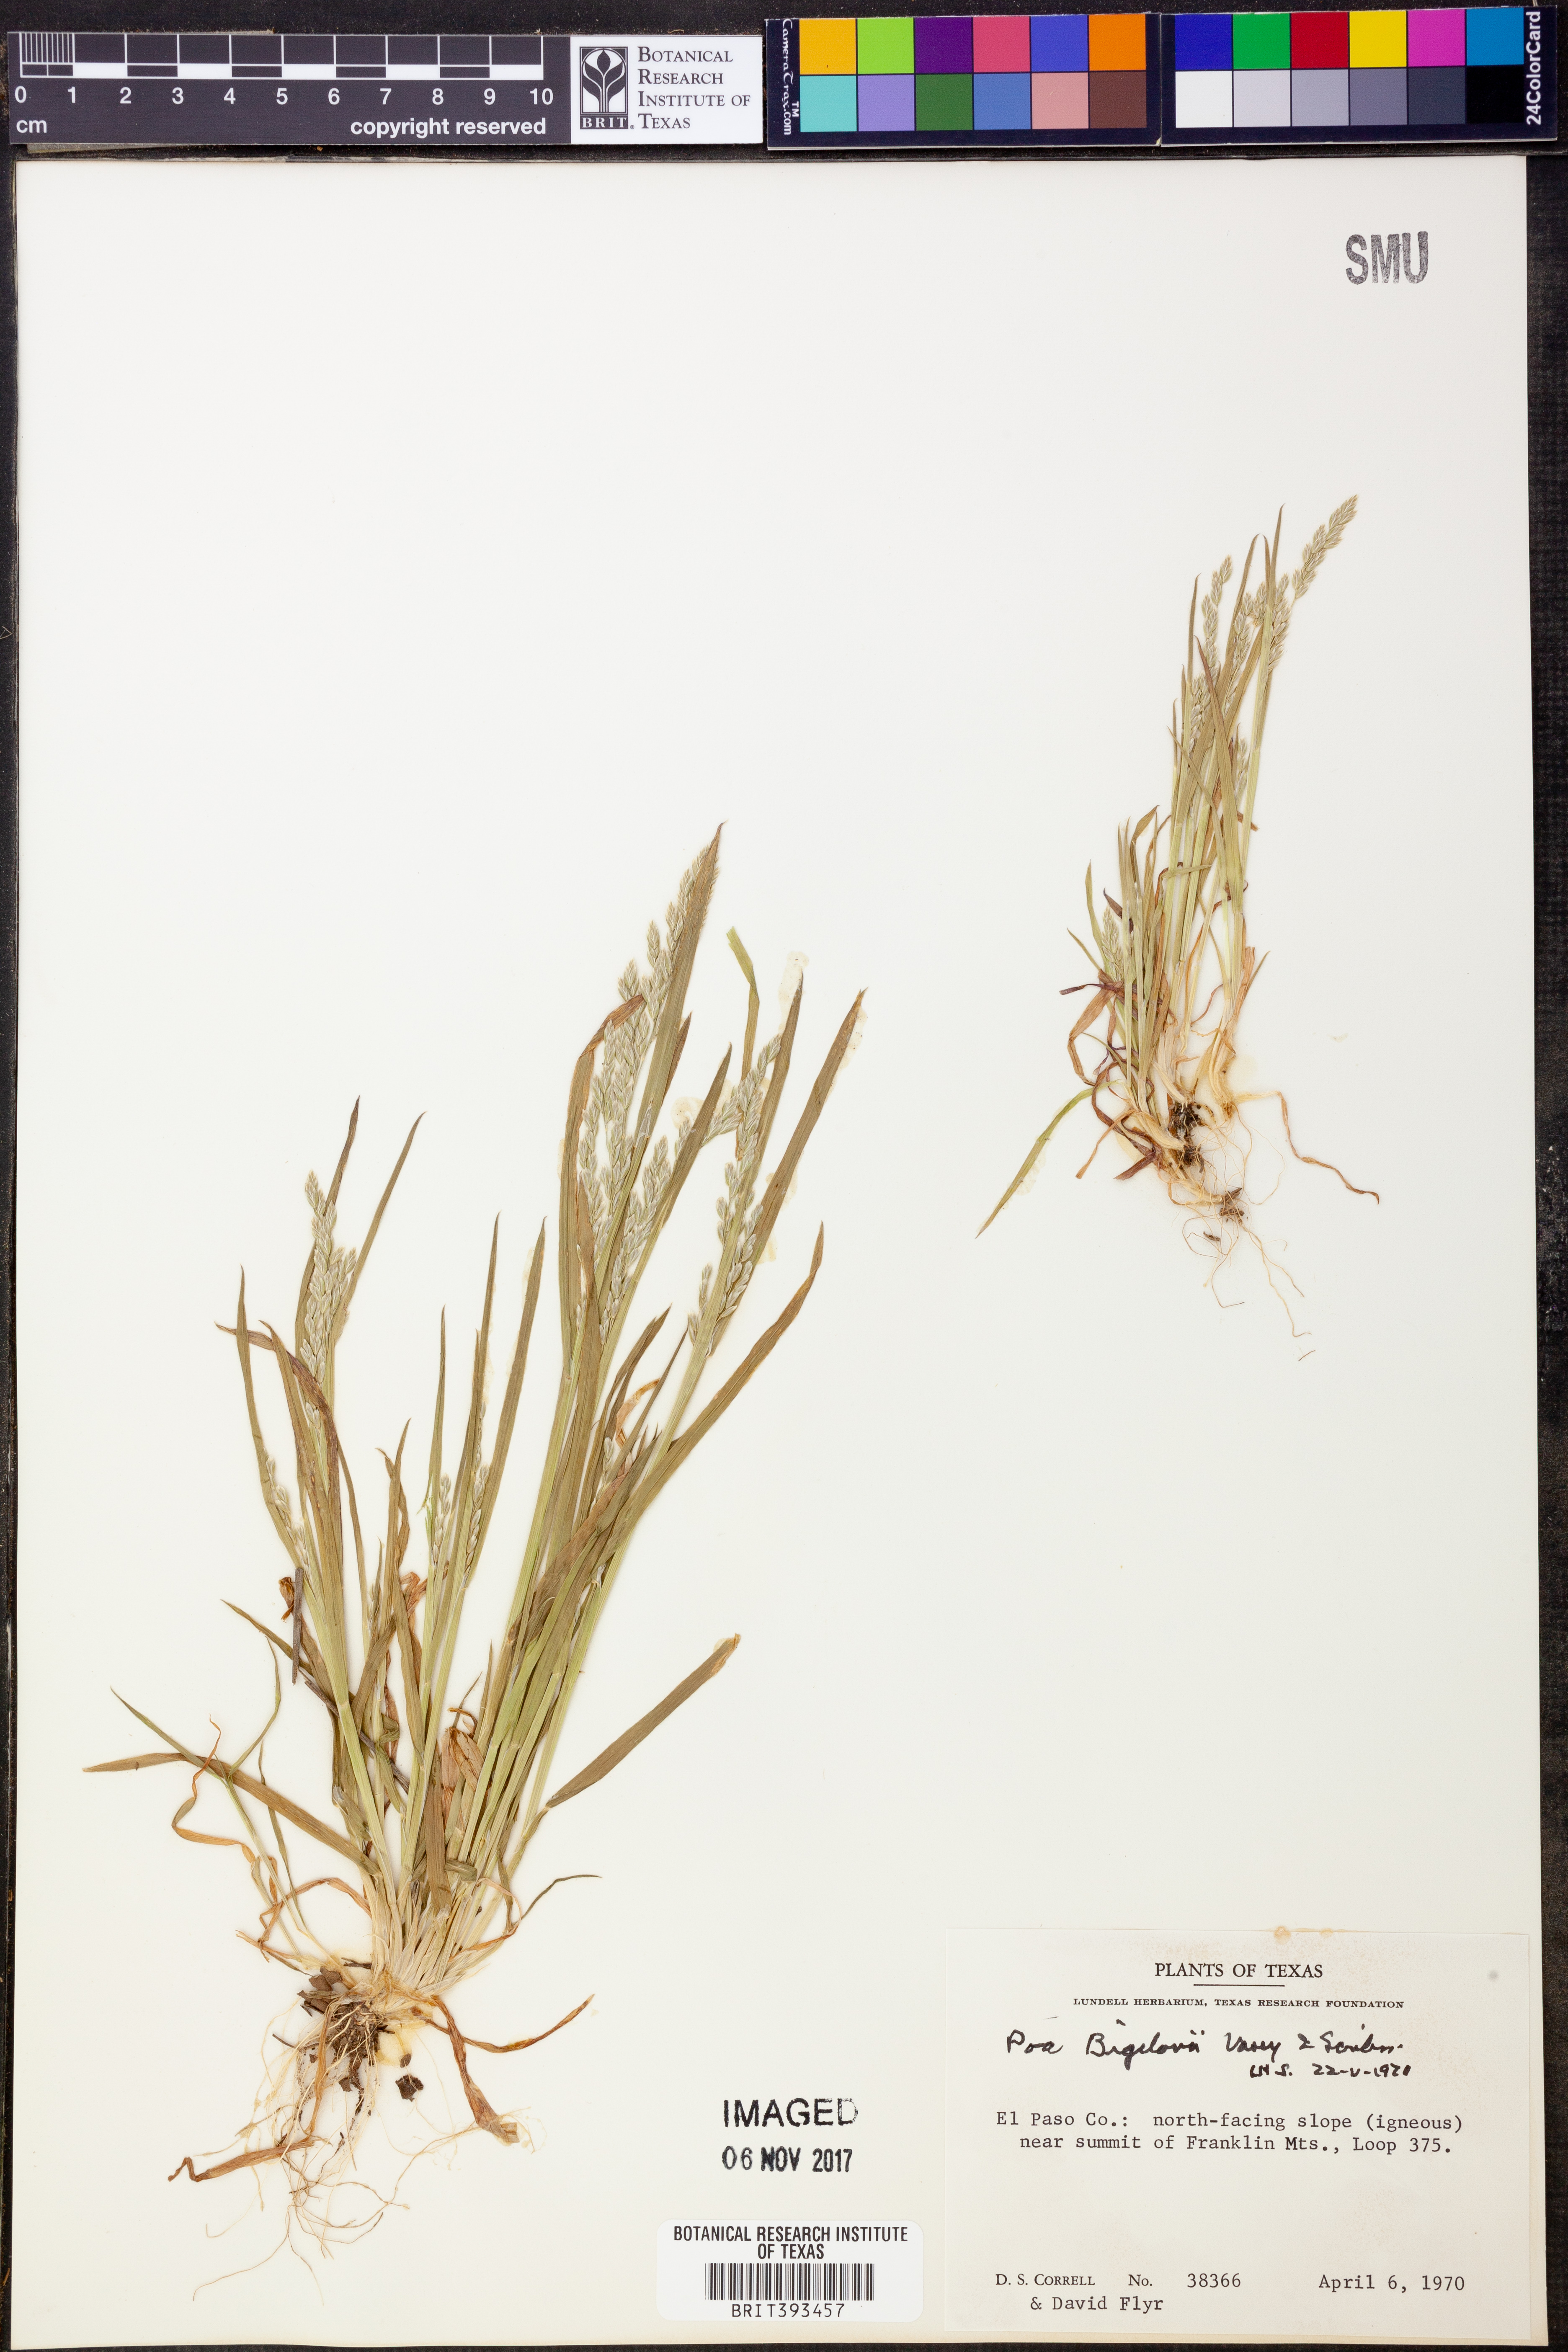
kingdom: Plantae
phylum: Tracheophyta
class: Liliopsida
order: Poales
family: Poaceae
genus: Poa
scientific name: Poa bigelovii
